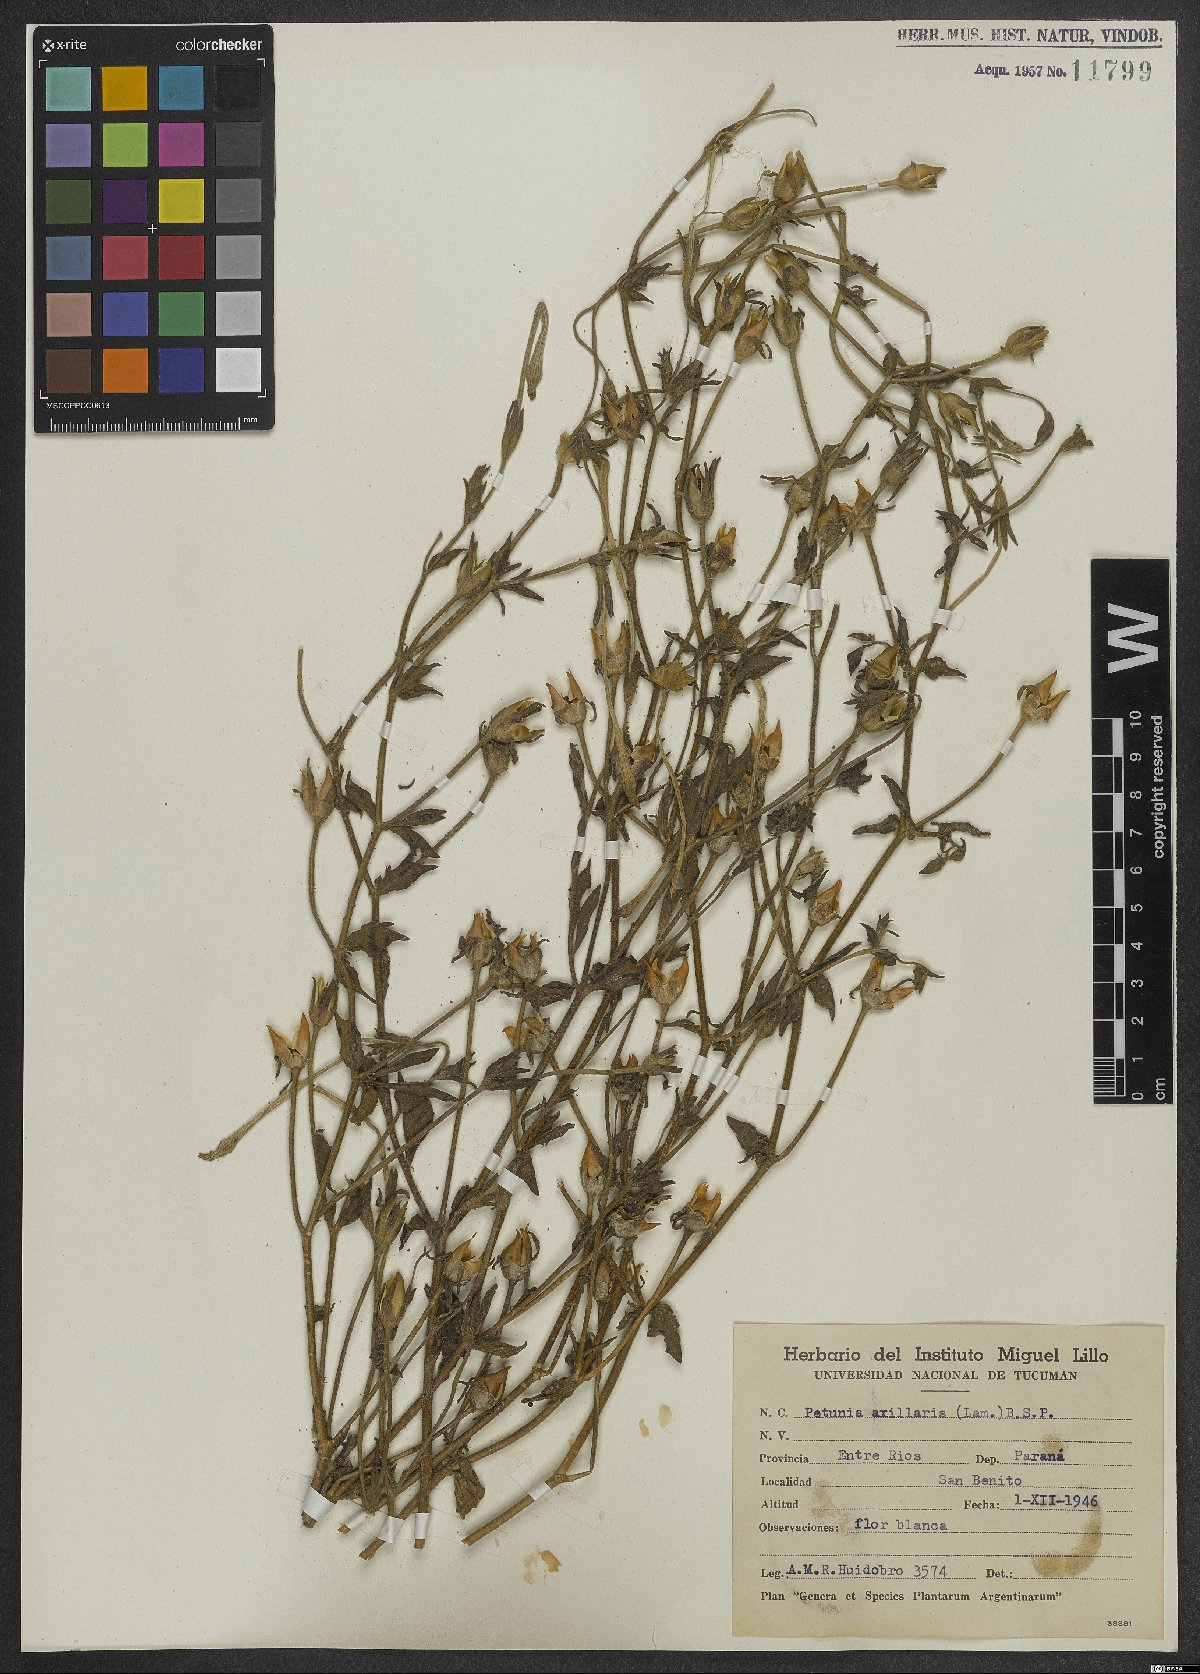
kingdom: Plantae
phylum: Tracheophyta
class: Magnoliopsida
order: Solanales
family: Solanaceae
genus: Petunia
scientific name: Petunia axillaris
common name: Large white petunia
